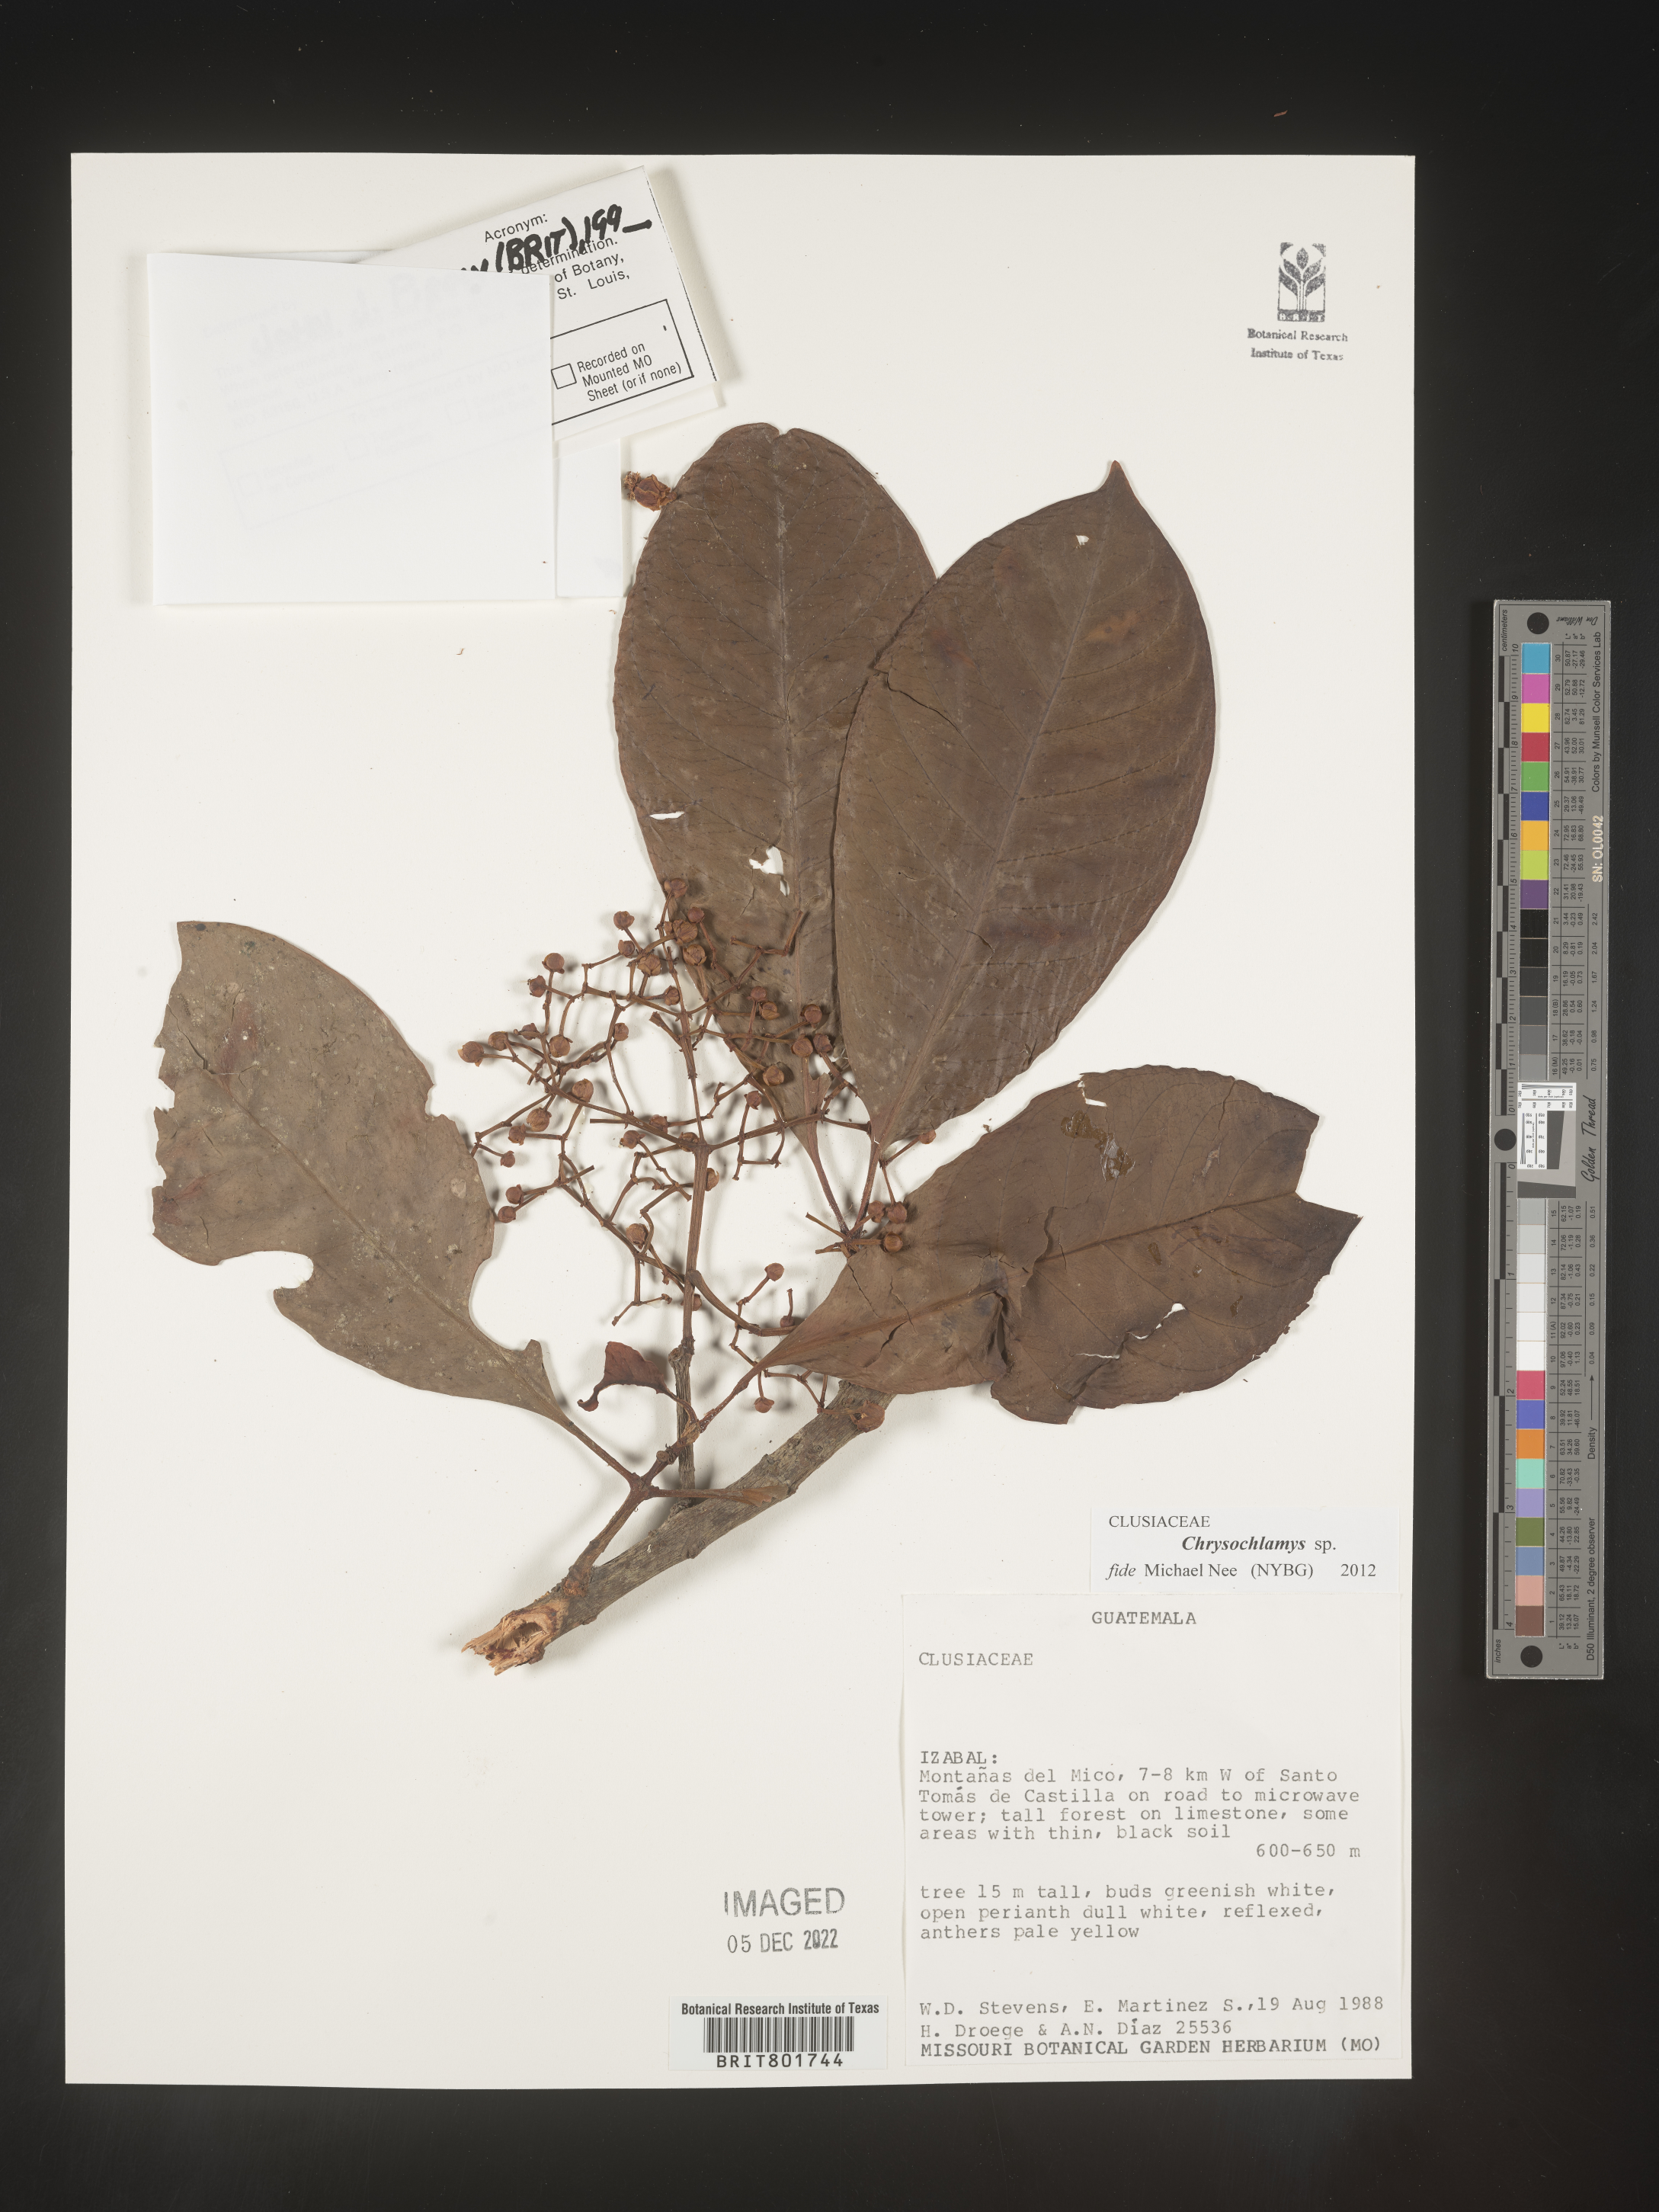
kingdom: Plantae
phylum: Tracheophyta
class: Magnoliopsida
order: Malpighiales
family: Clusiaceae
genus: Chrysochlamys
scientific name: Chrysochlamys
